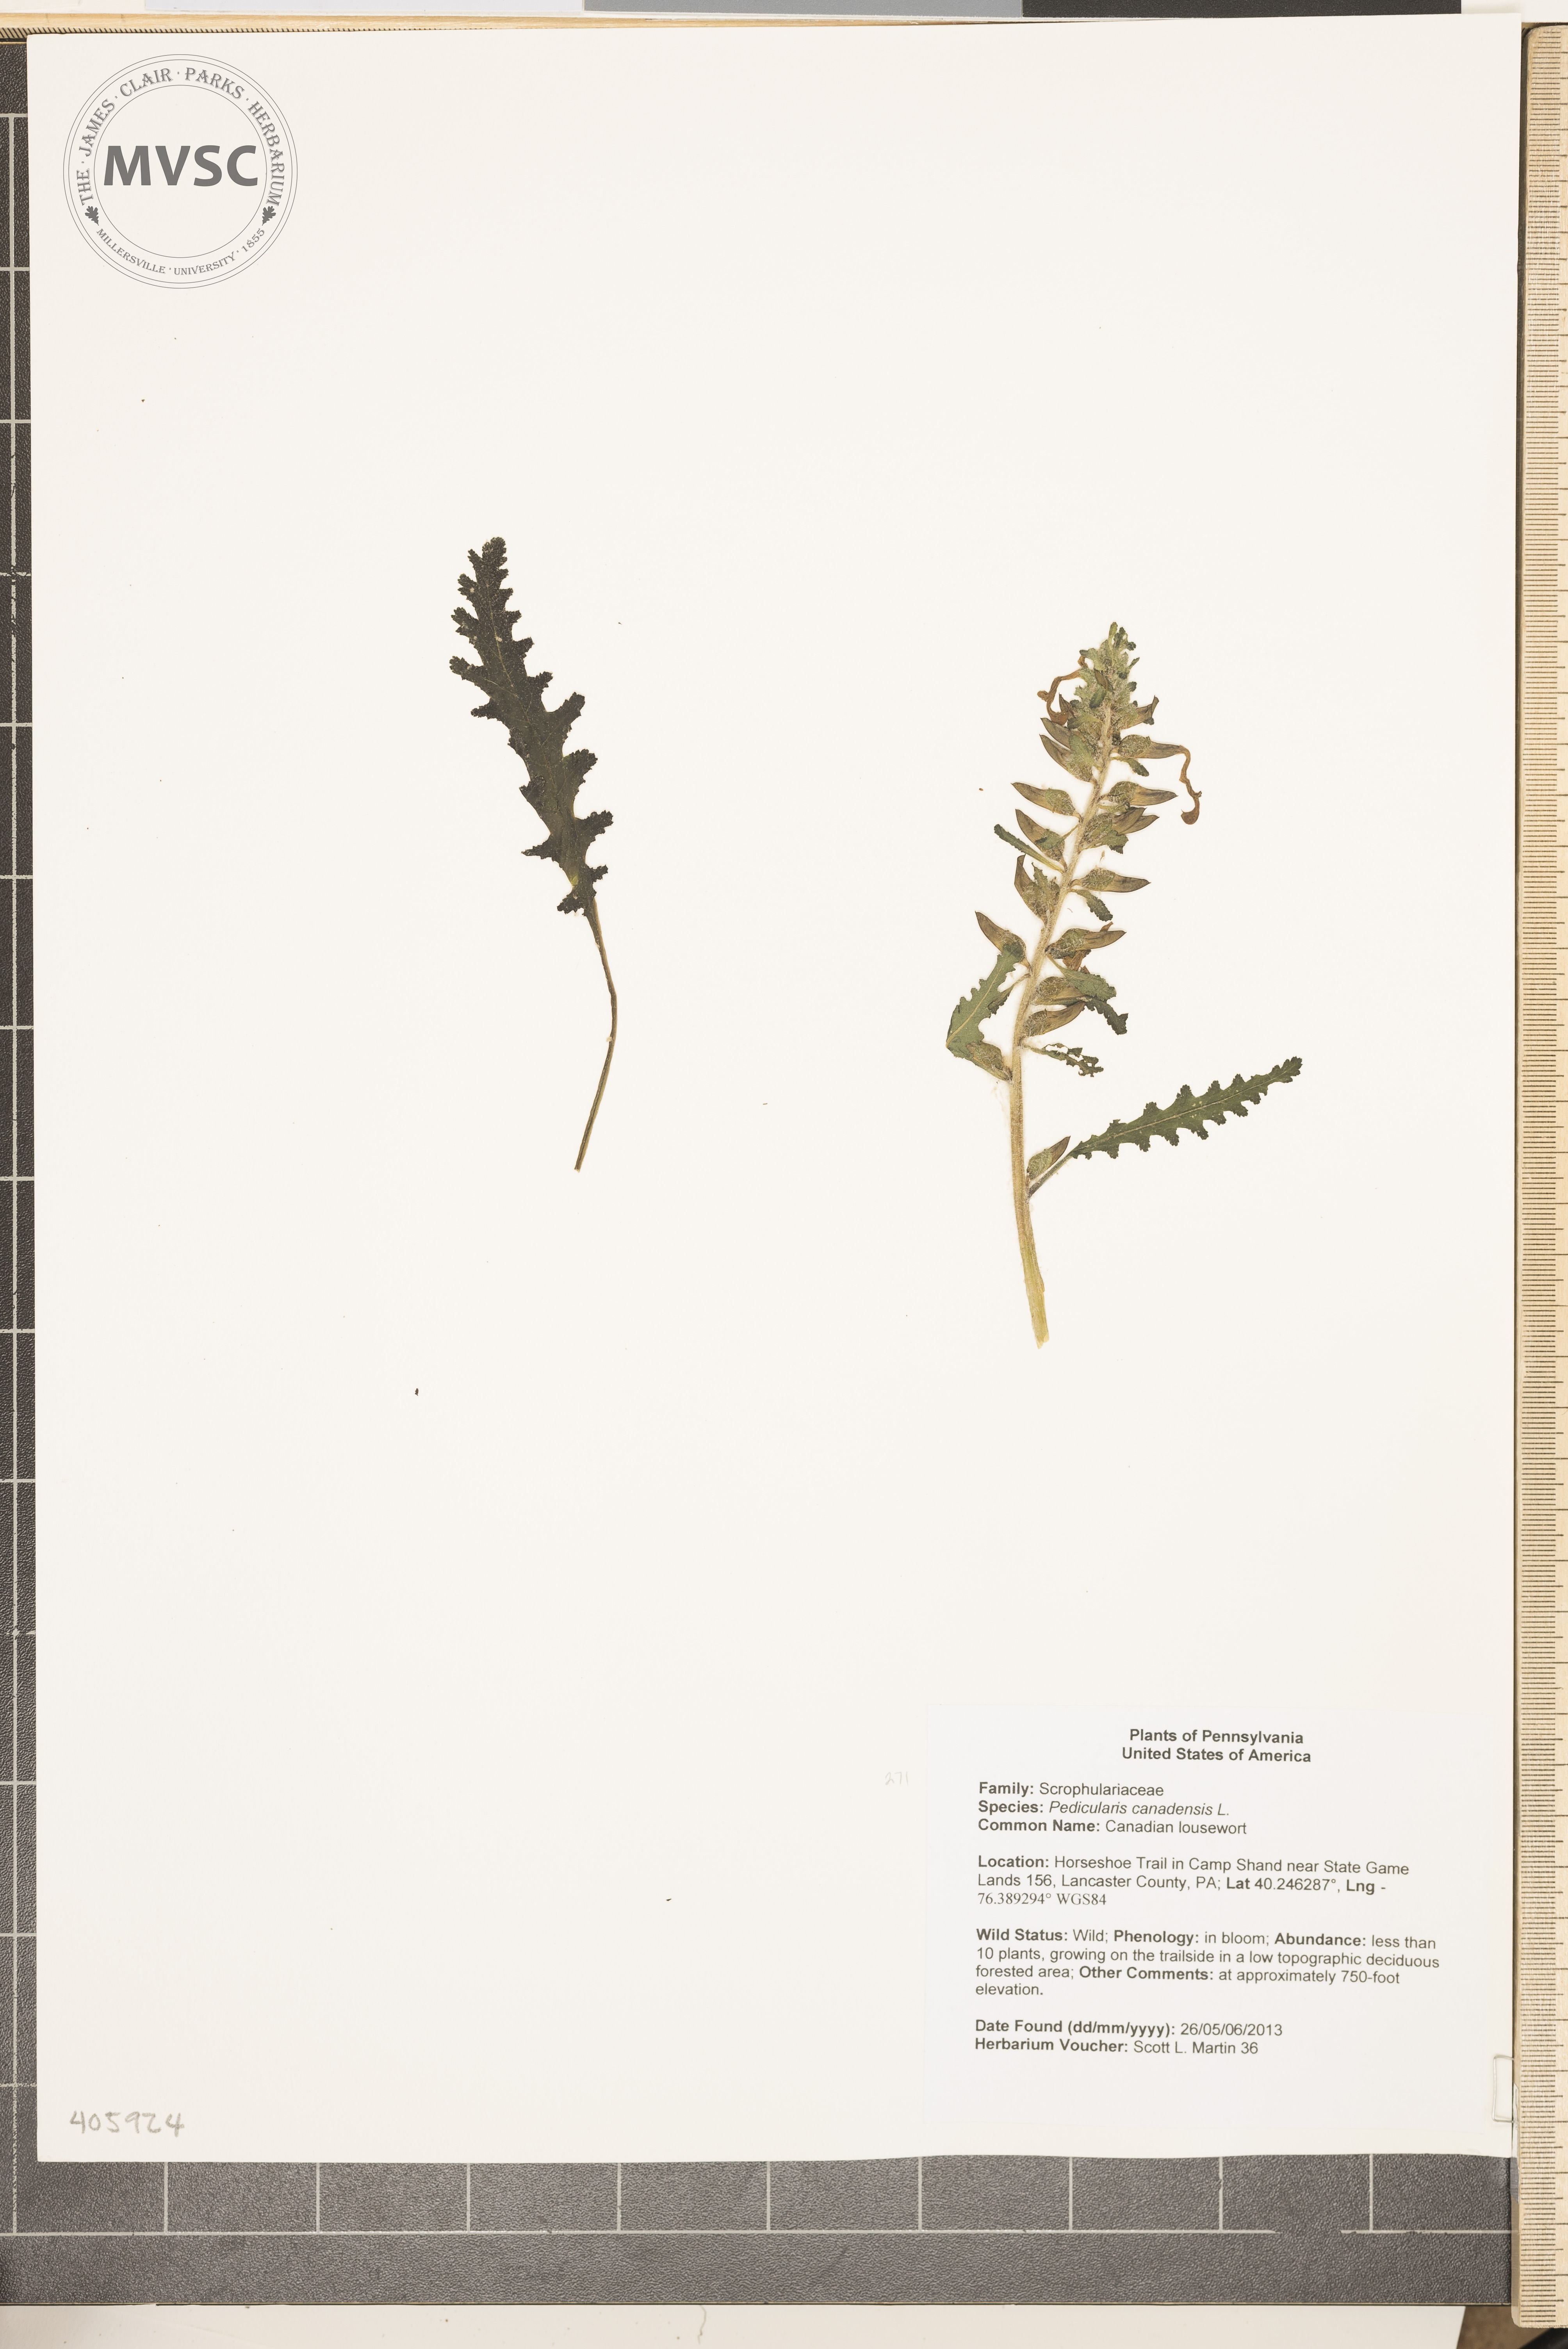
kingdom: Plantae
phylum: Tracheophyta
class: Magnoliopsida
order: Lamiales
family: Orobanchaceae
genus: Pedicularis
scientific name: Pedicularis canadensis
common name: Canadian lousewort
